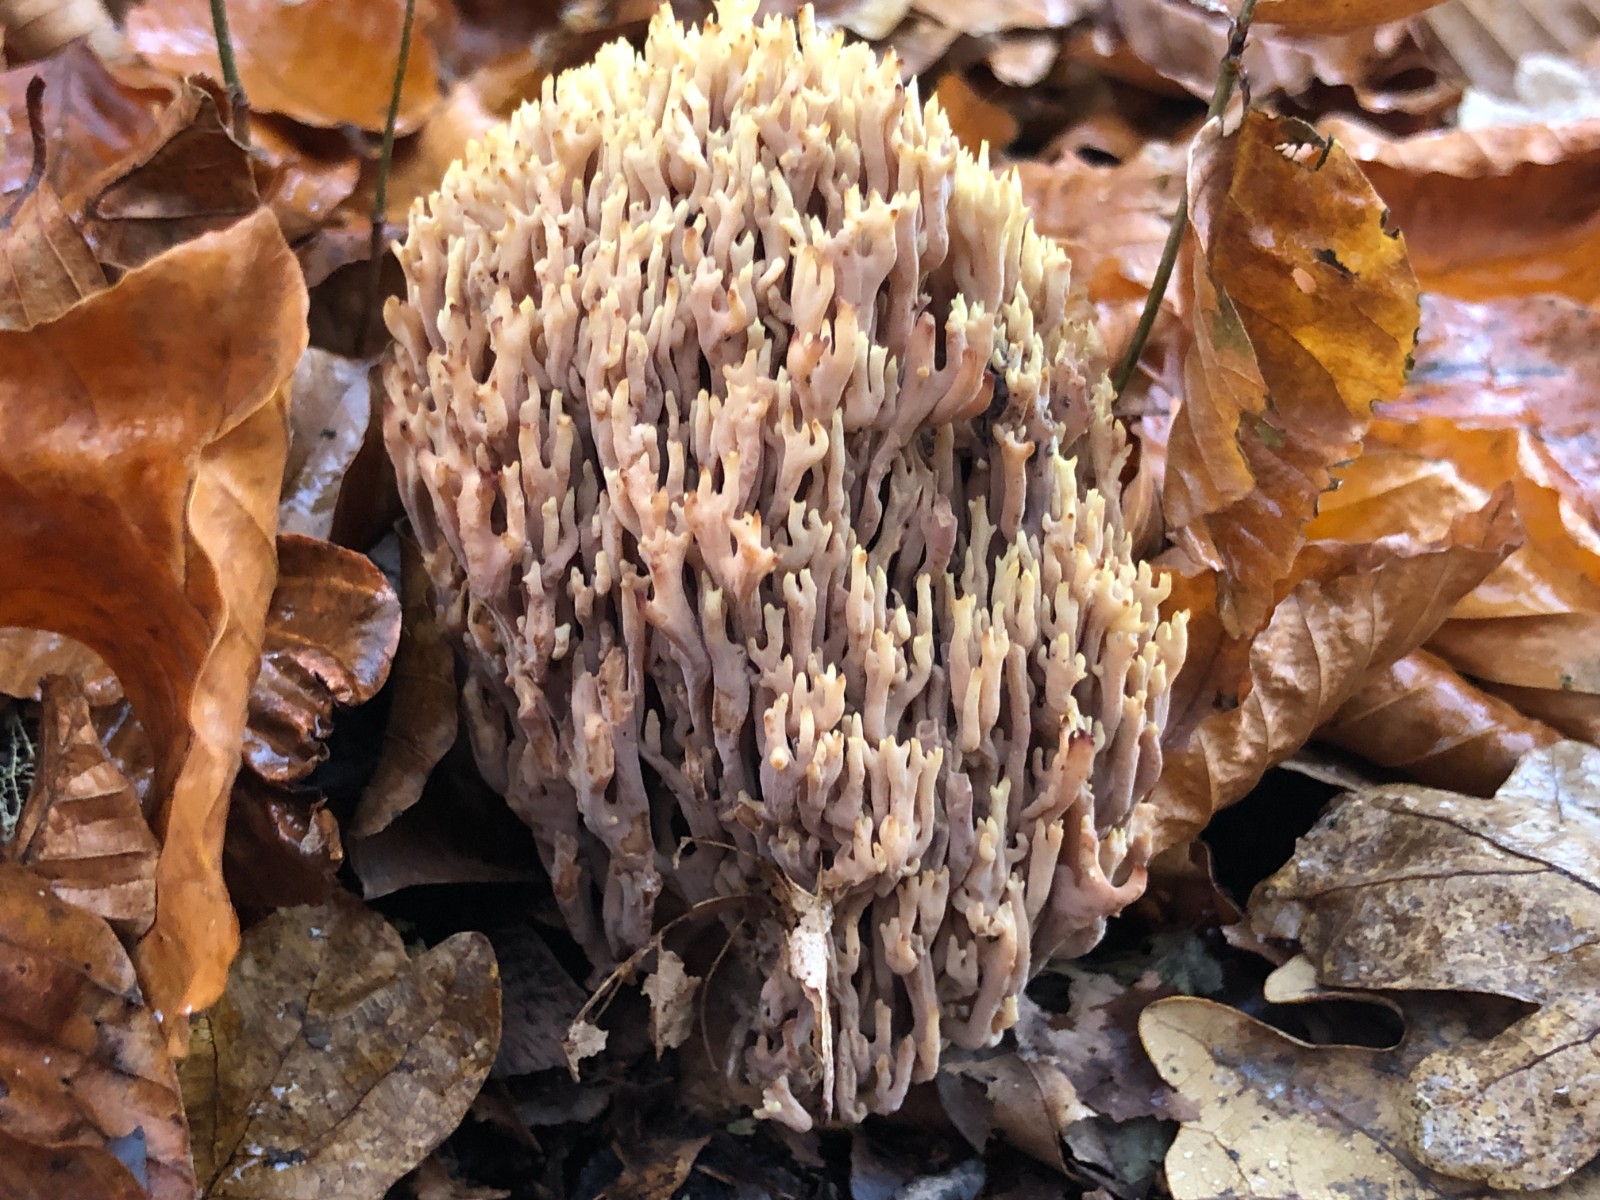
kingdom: Fungi
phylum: Basidiomycota
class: Agaricomycetes
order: Gomphales
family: Gomphaceae
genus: Ramaria
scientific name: Ramaria stricta
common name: rank koralsvamp
